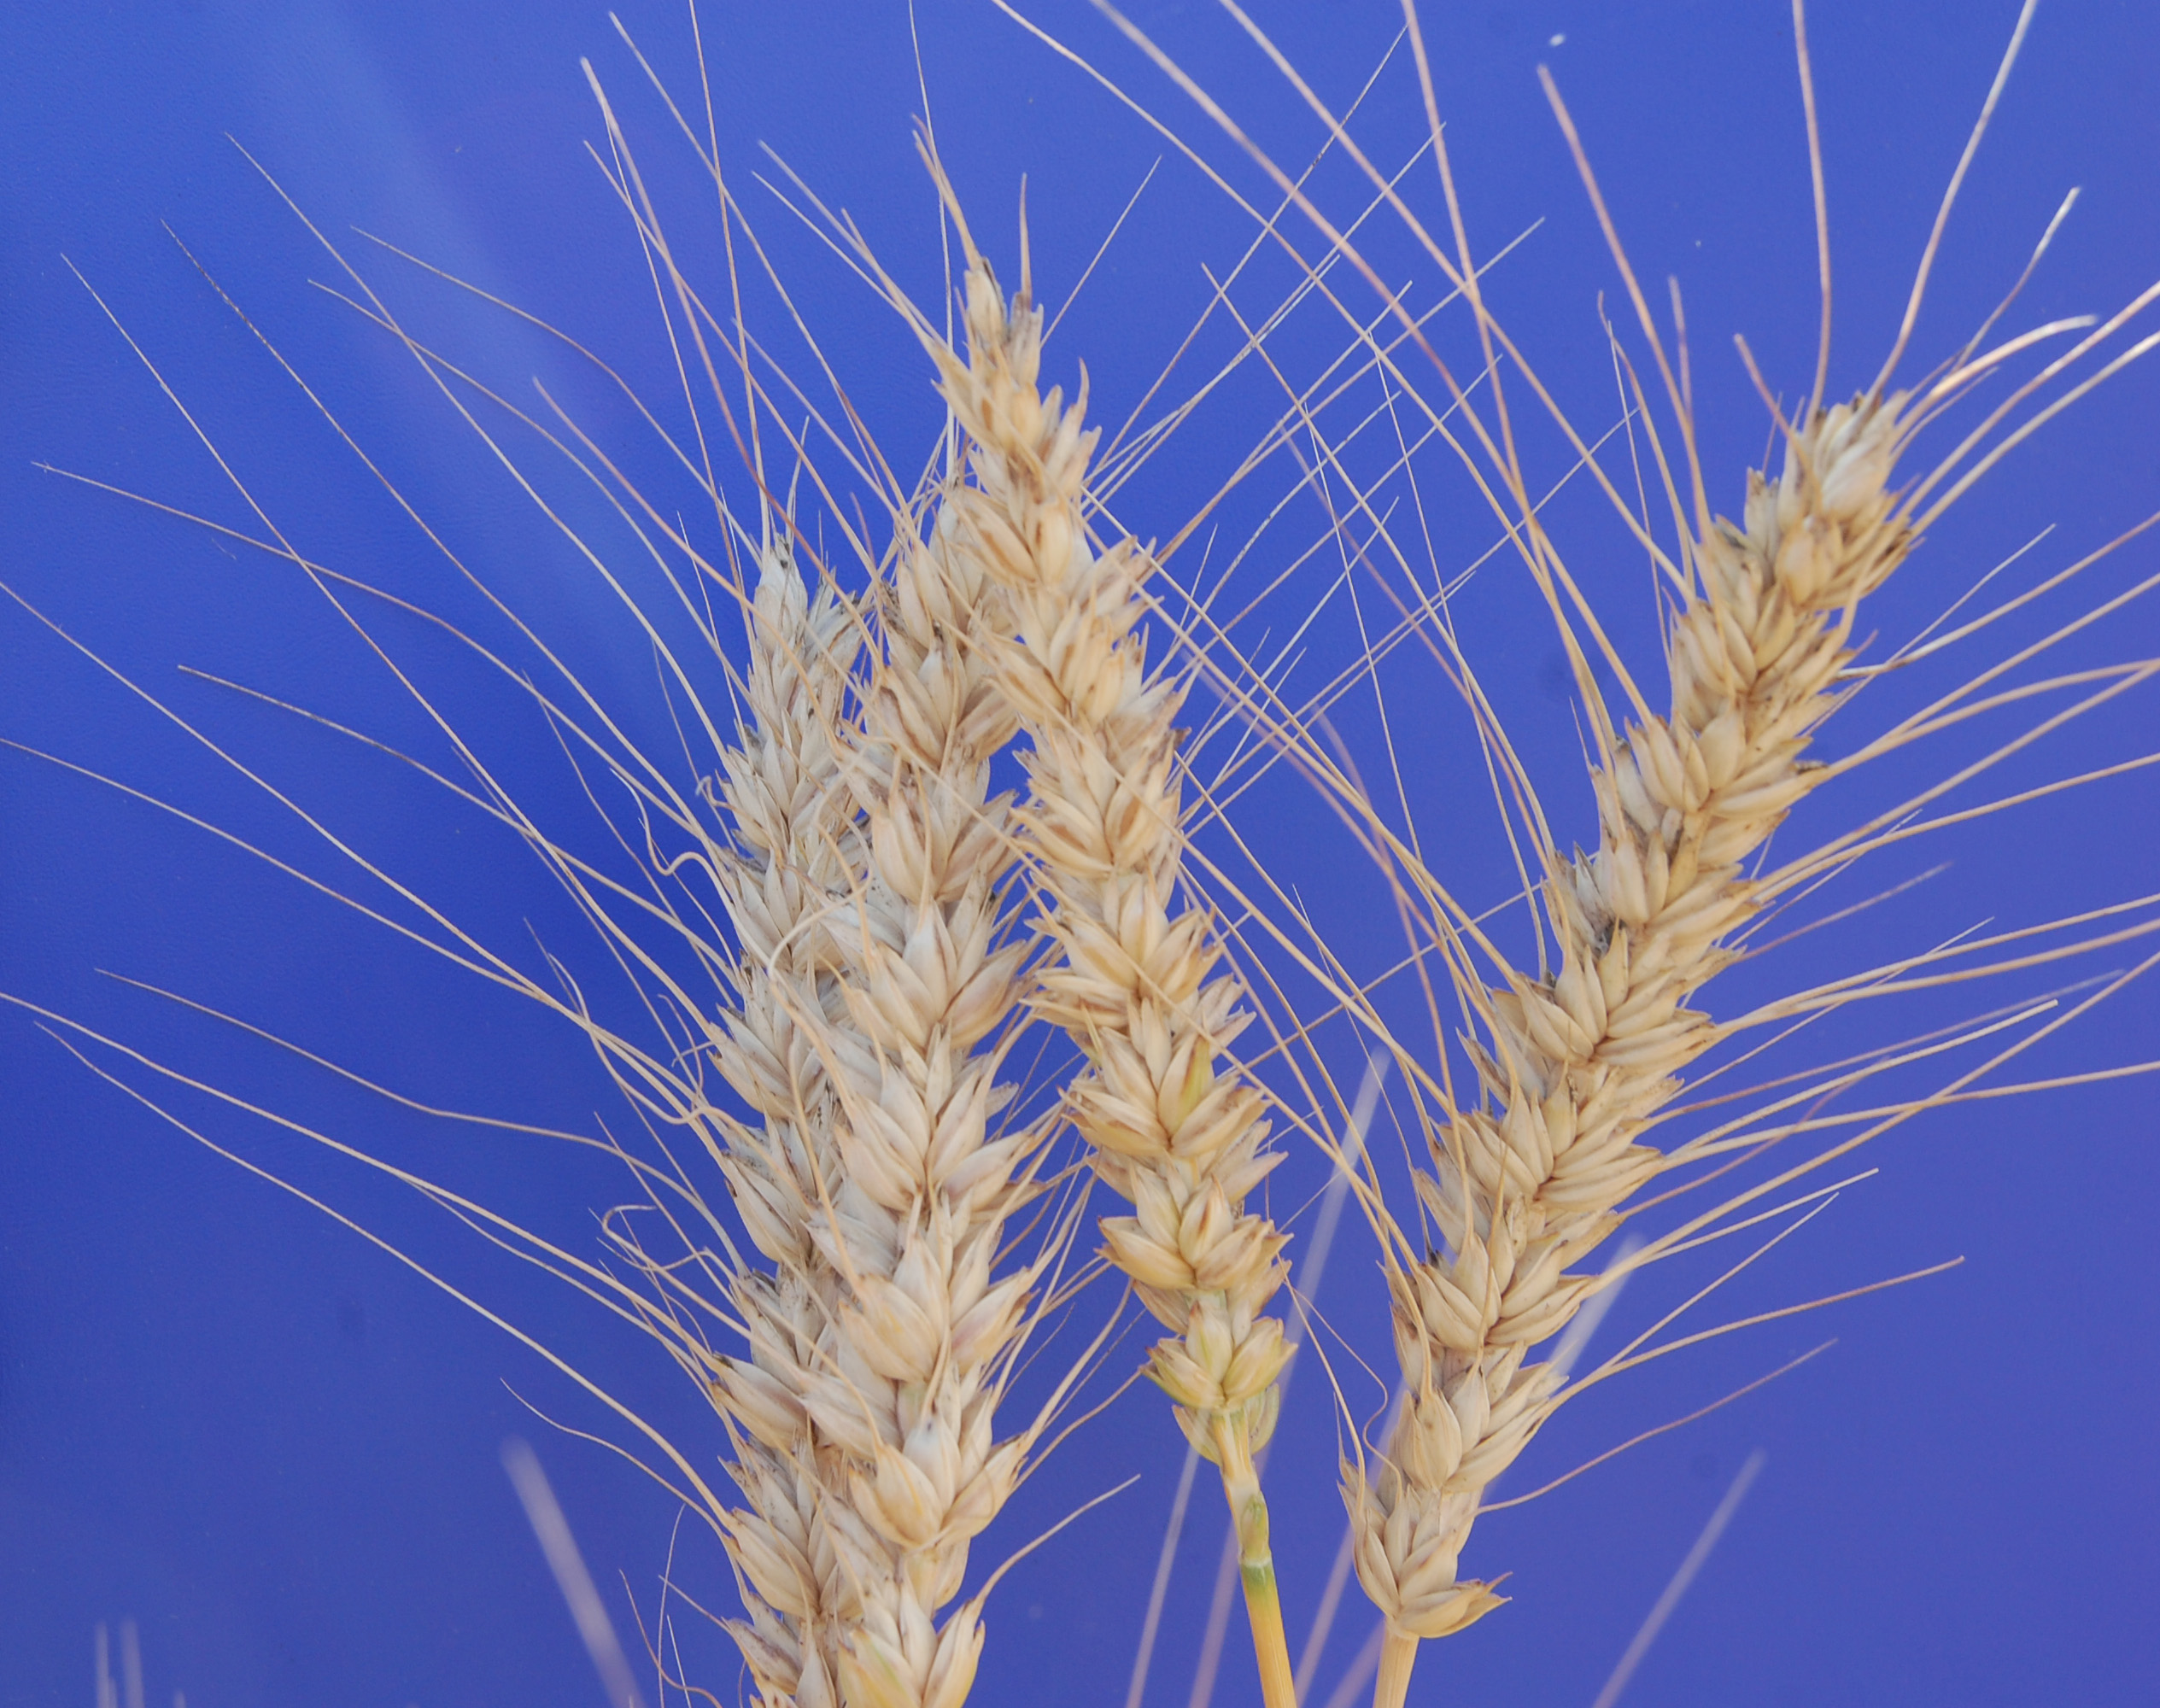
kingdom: Plantae
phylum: Tracheophyta
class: Liliopsida
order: Poales
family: Poaceae
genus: Triticum
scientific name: Triticum aestivum
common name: Common wheat
